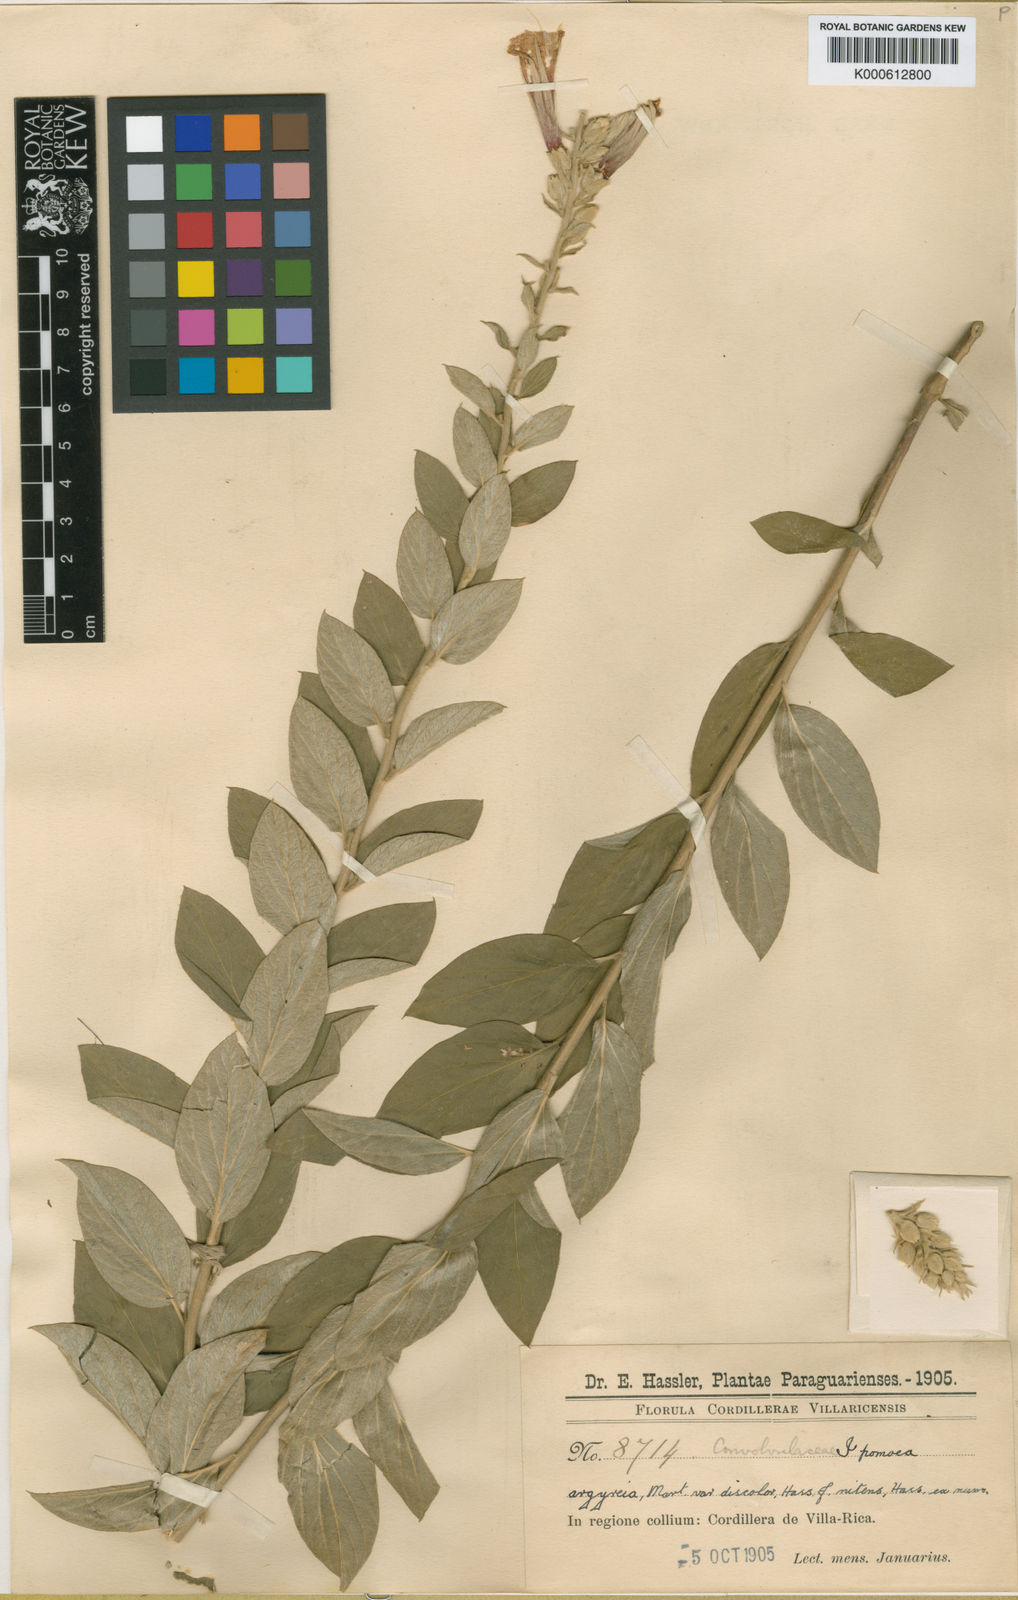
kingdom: Plantae
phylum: Tracheophyta
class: Magnoliopsida
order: Solanales
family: Convolvulaceae
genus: Ipomoea
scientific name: Ipomoea paraguariensis
